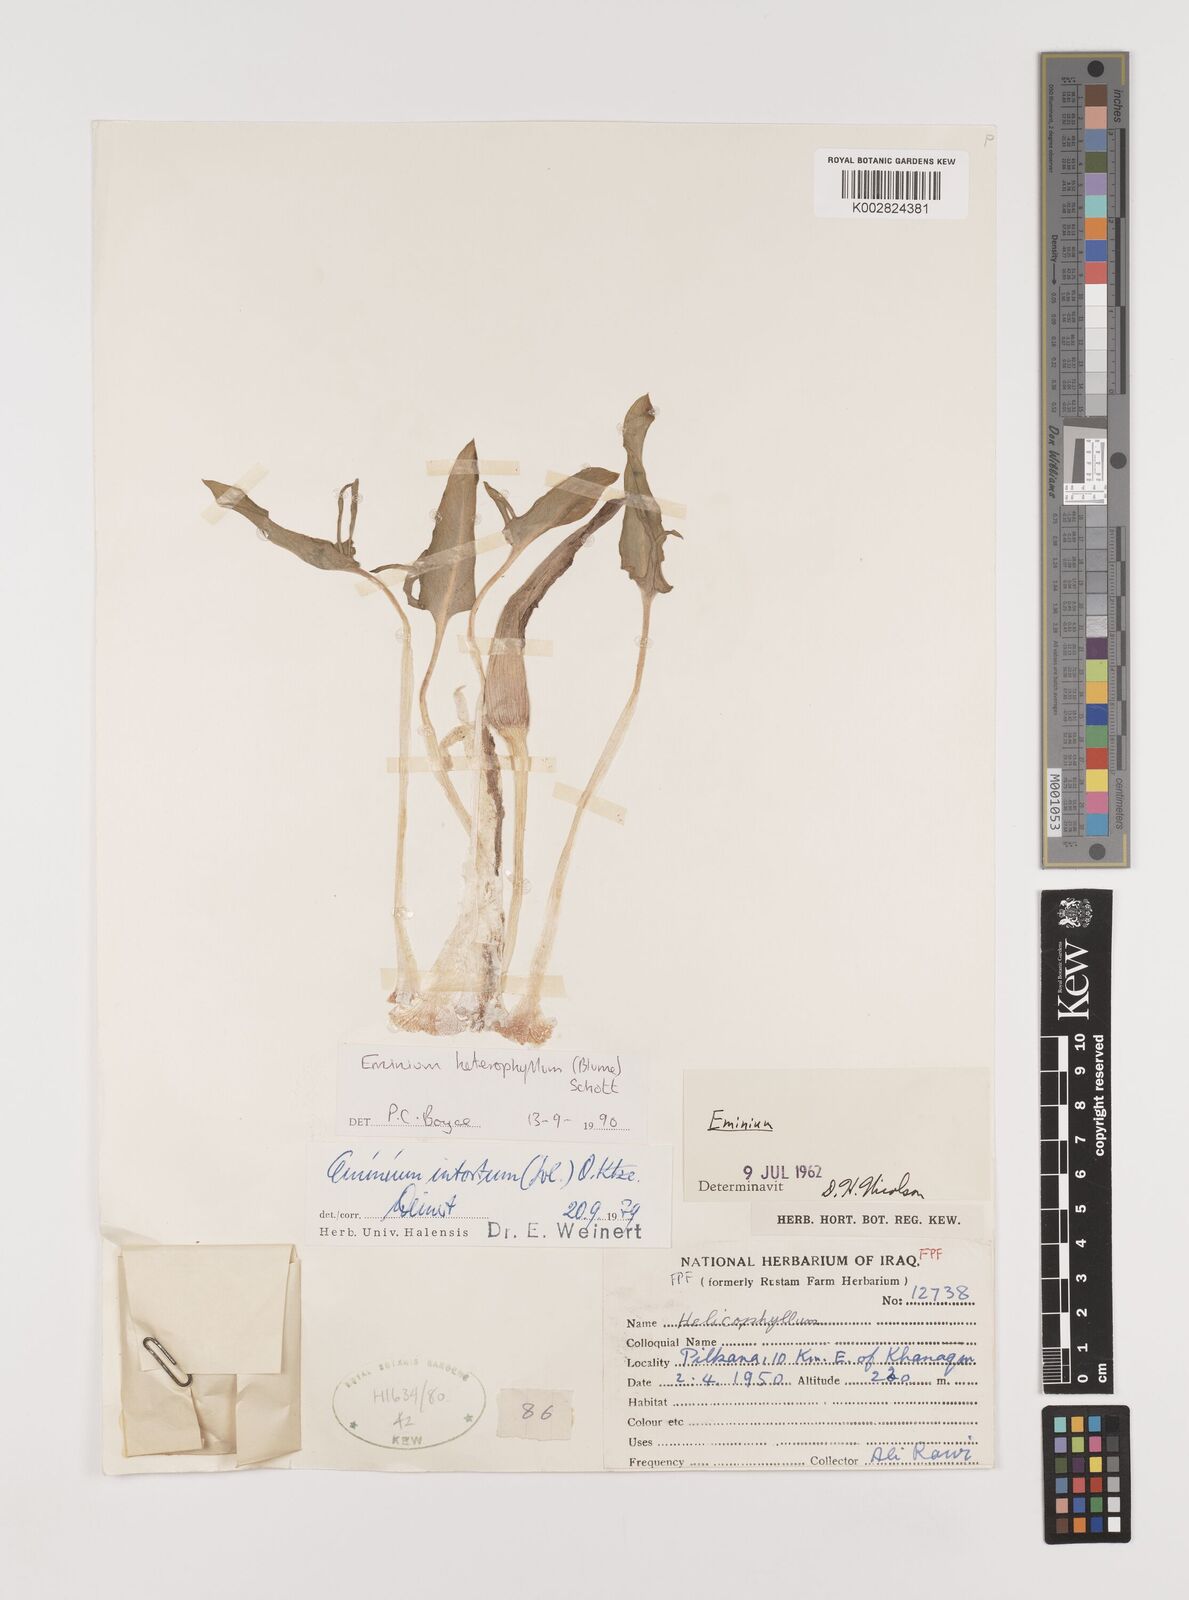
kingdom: Plantae
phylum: Tracheophyta
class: Liliopsida
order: Alismatales
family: Araceae
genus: Eminium
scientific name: Eminium rauwolffii
